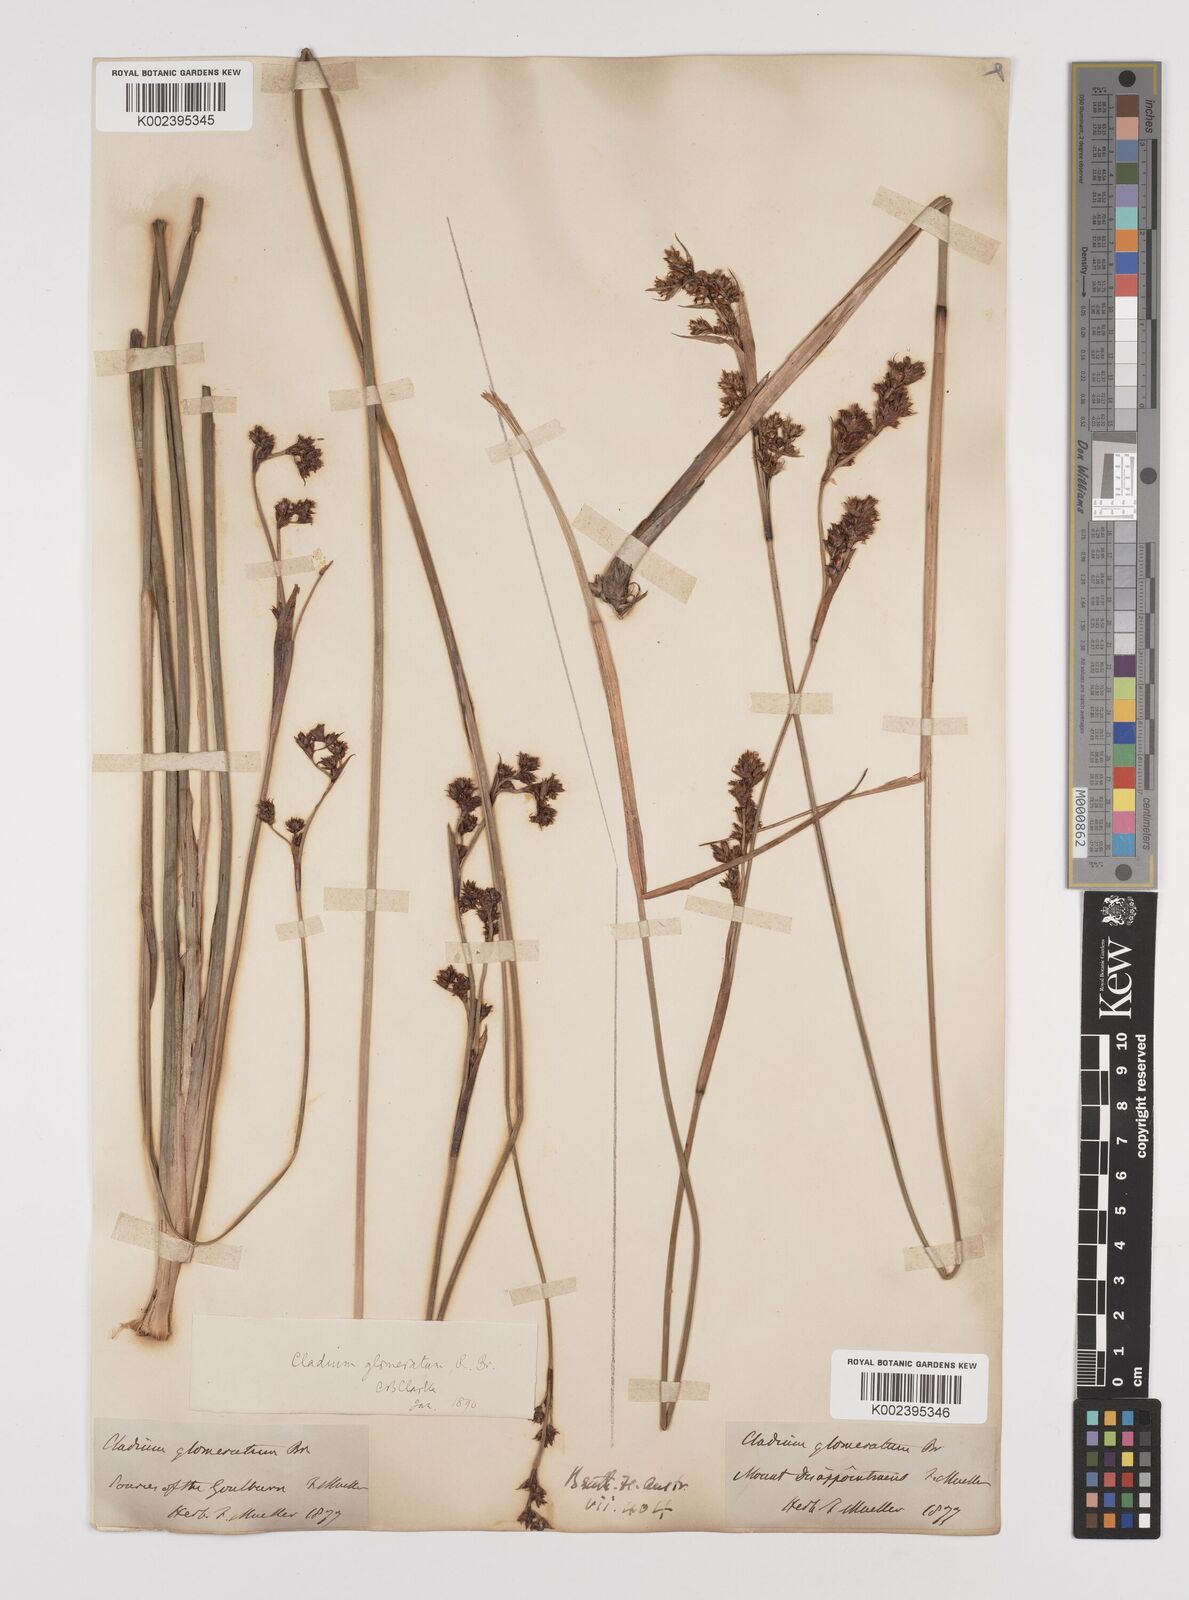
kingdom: Plantae
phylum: Tracheophyta
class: Liliopsida
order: Poales
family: Cyperaceae
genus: Machaerina
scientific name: Machaerina rubiginosa
